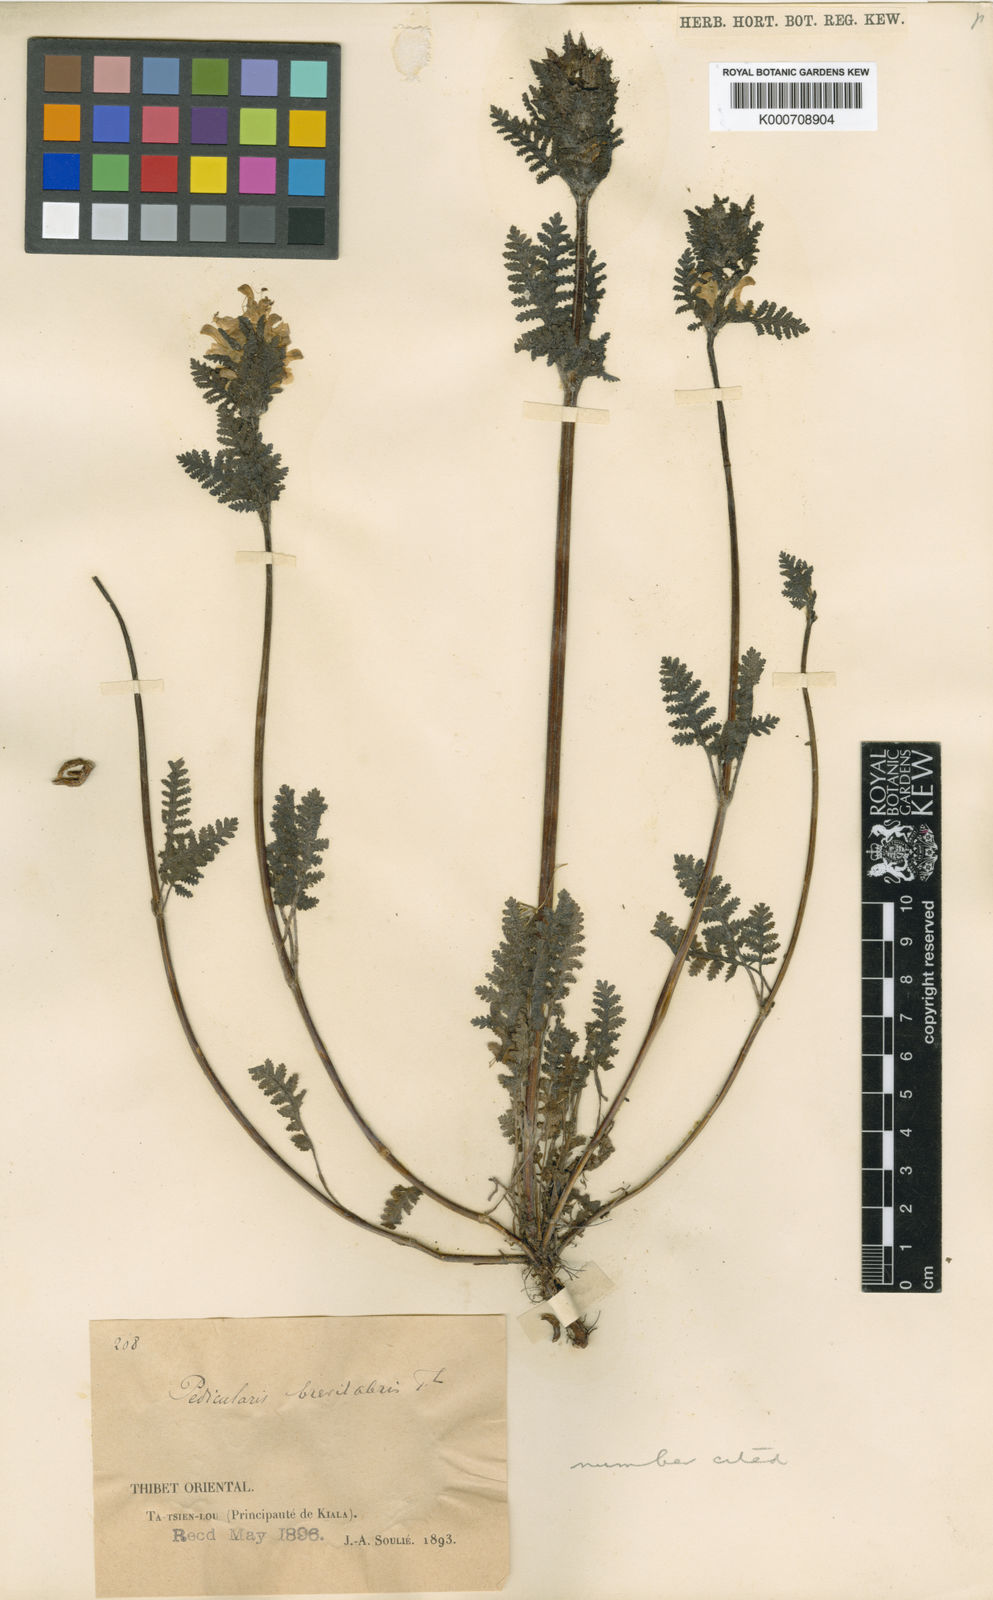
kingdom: Plantae
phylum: Tracheophyta
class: Magnoliopsida
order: Lamiales
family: Orobanchaceae
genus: Pedicularis
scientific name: Pedicularis brevilabris
